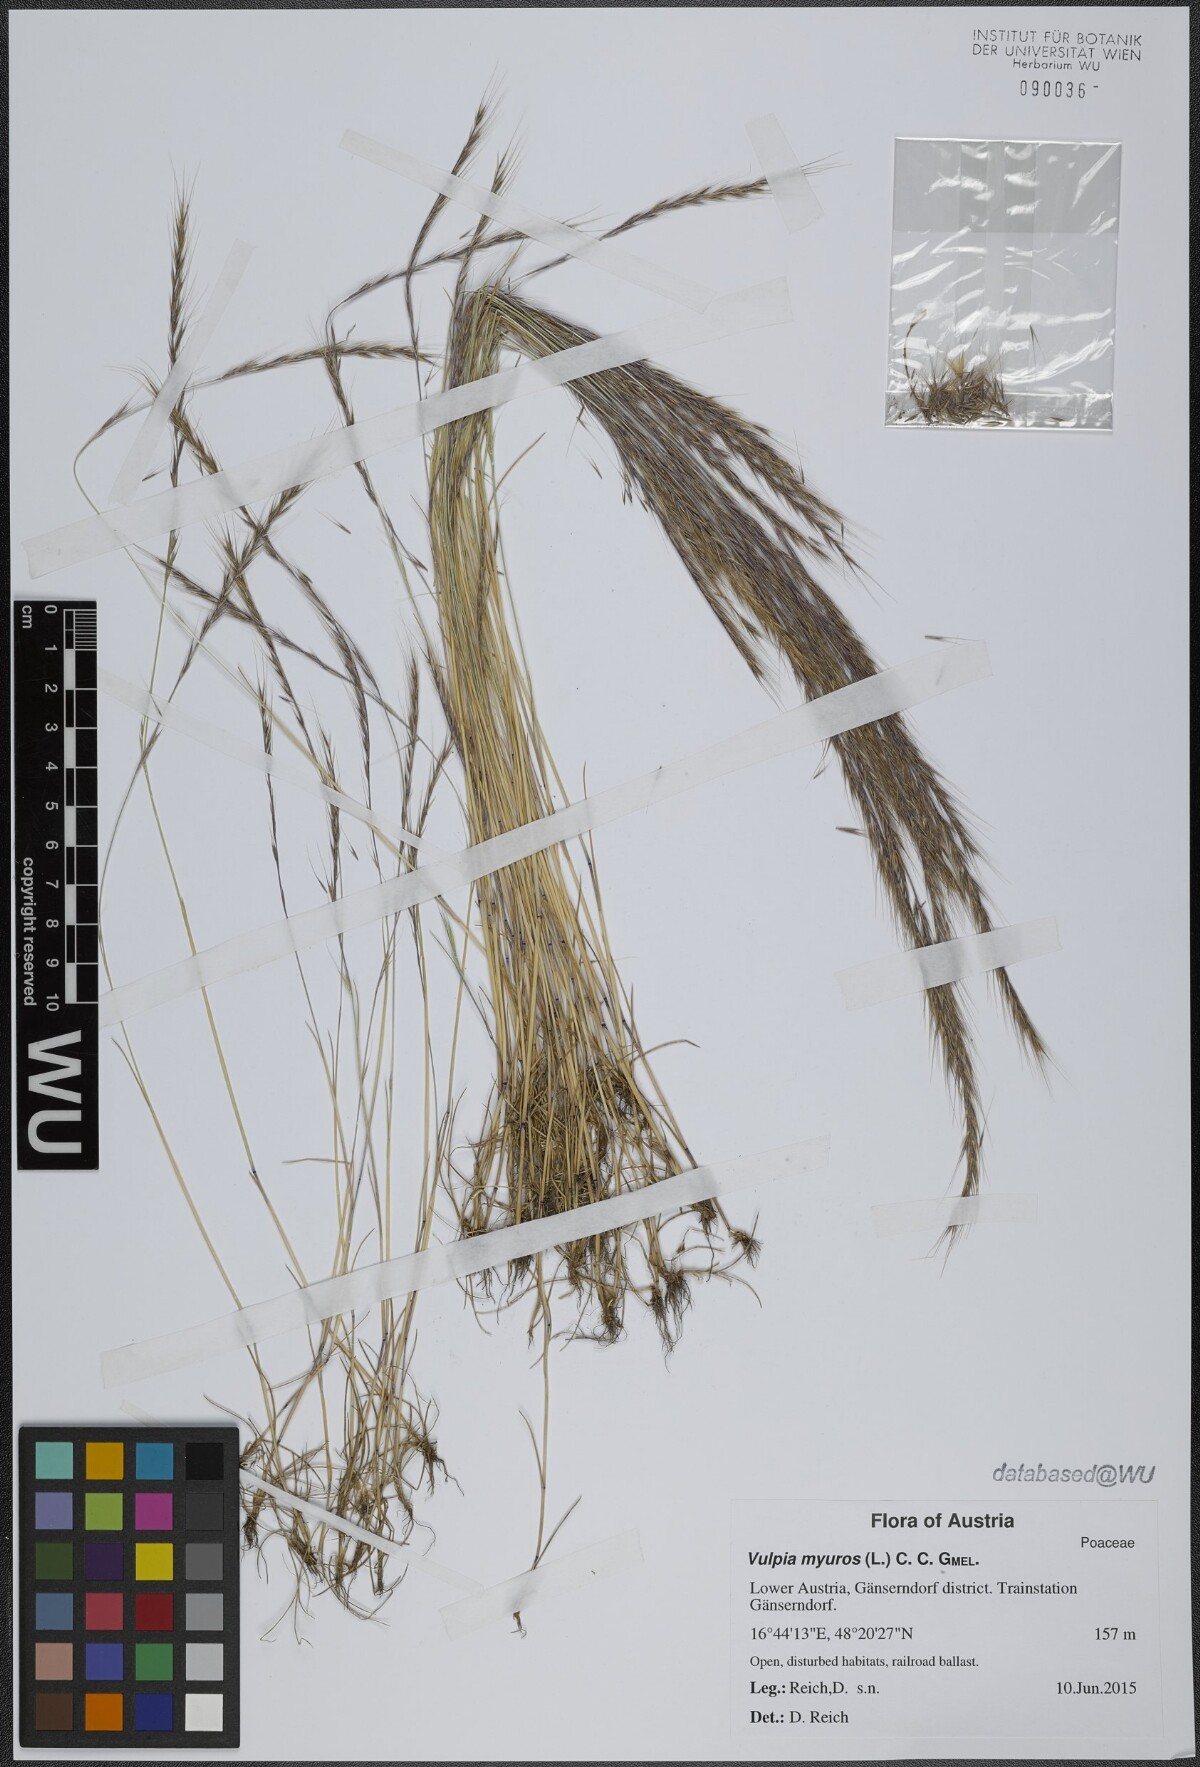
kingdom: Plantae
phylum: Tracheophyta
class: Liliopsida
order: Poales
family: Poaceae
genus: Festuca
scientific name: Festuca myuros
